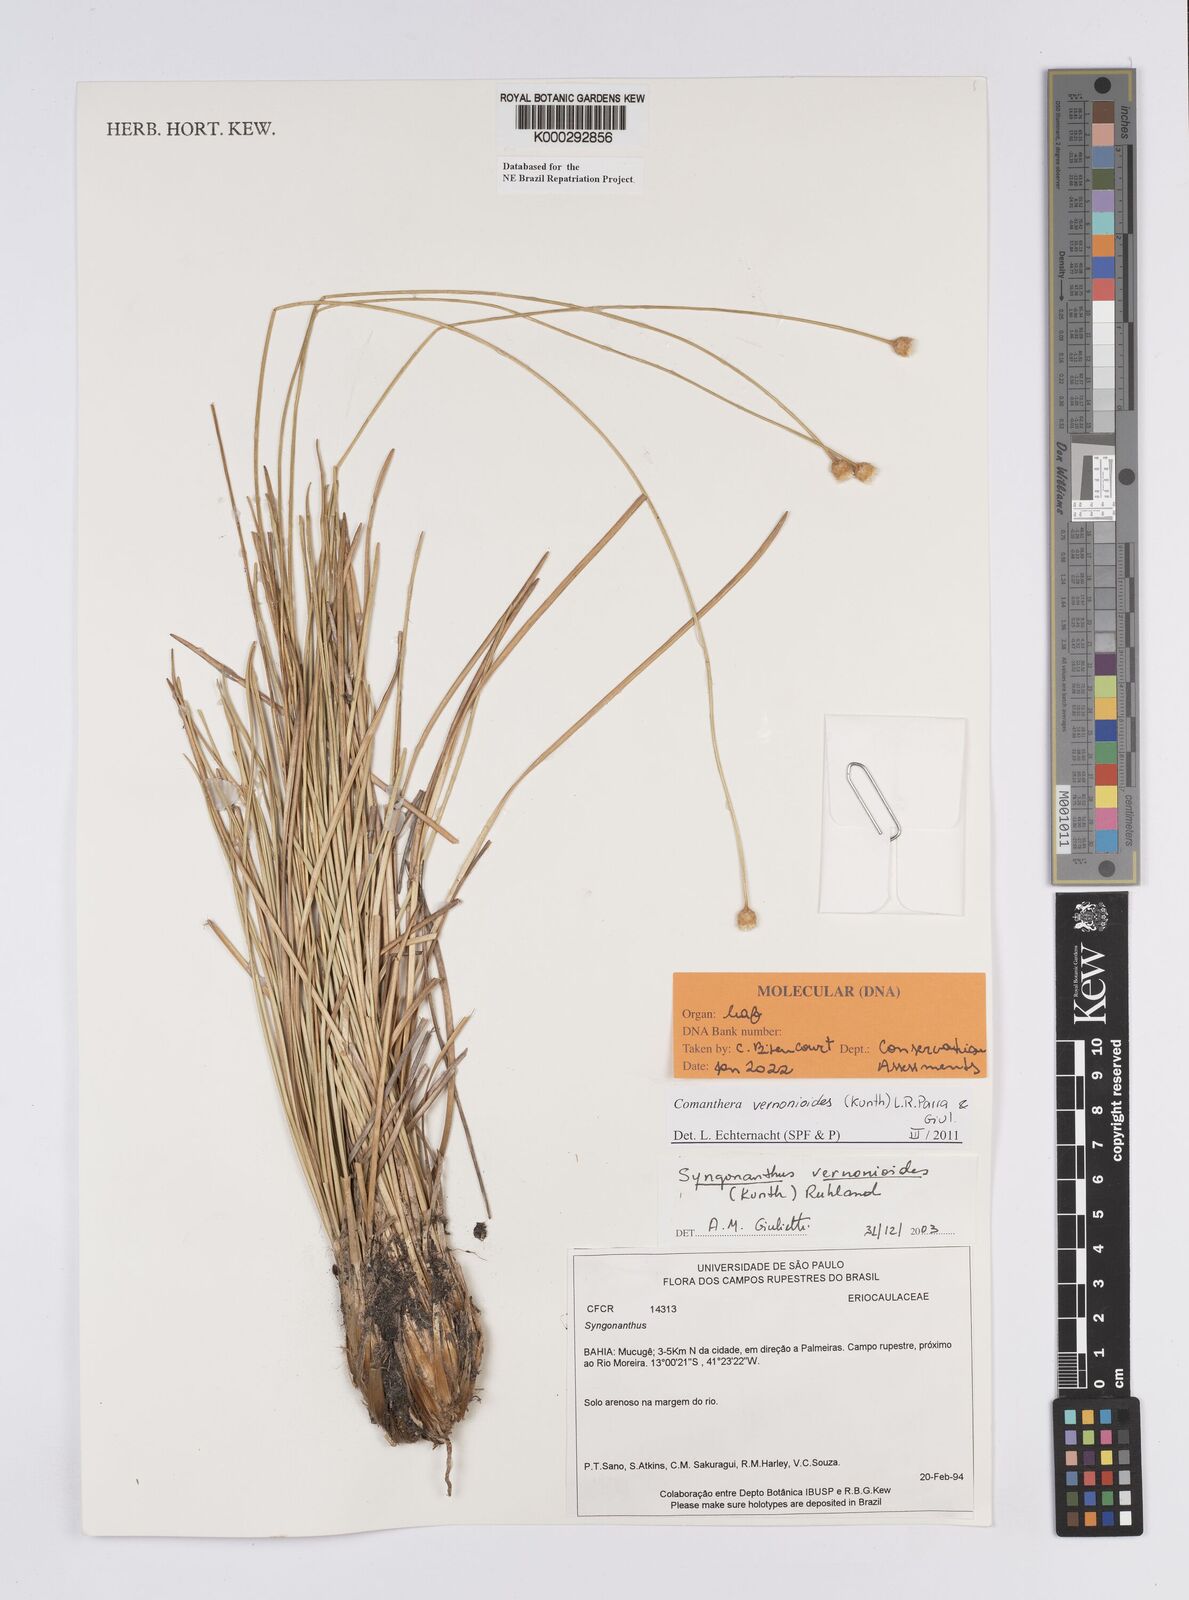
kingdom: Plantae
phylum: Tracheophyta
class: Liliopsida
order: Poales
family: Eriocaulaceae
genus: Comanthera
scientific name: Comanthera centauroides
